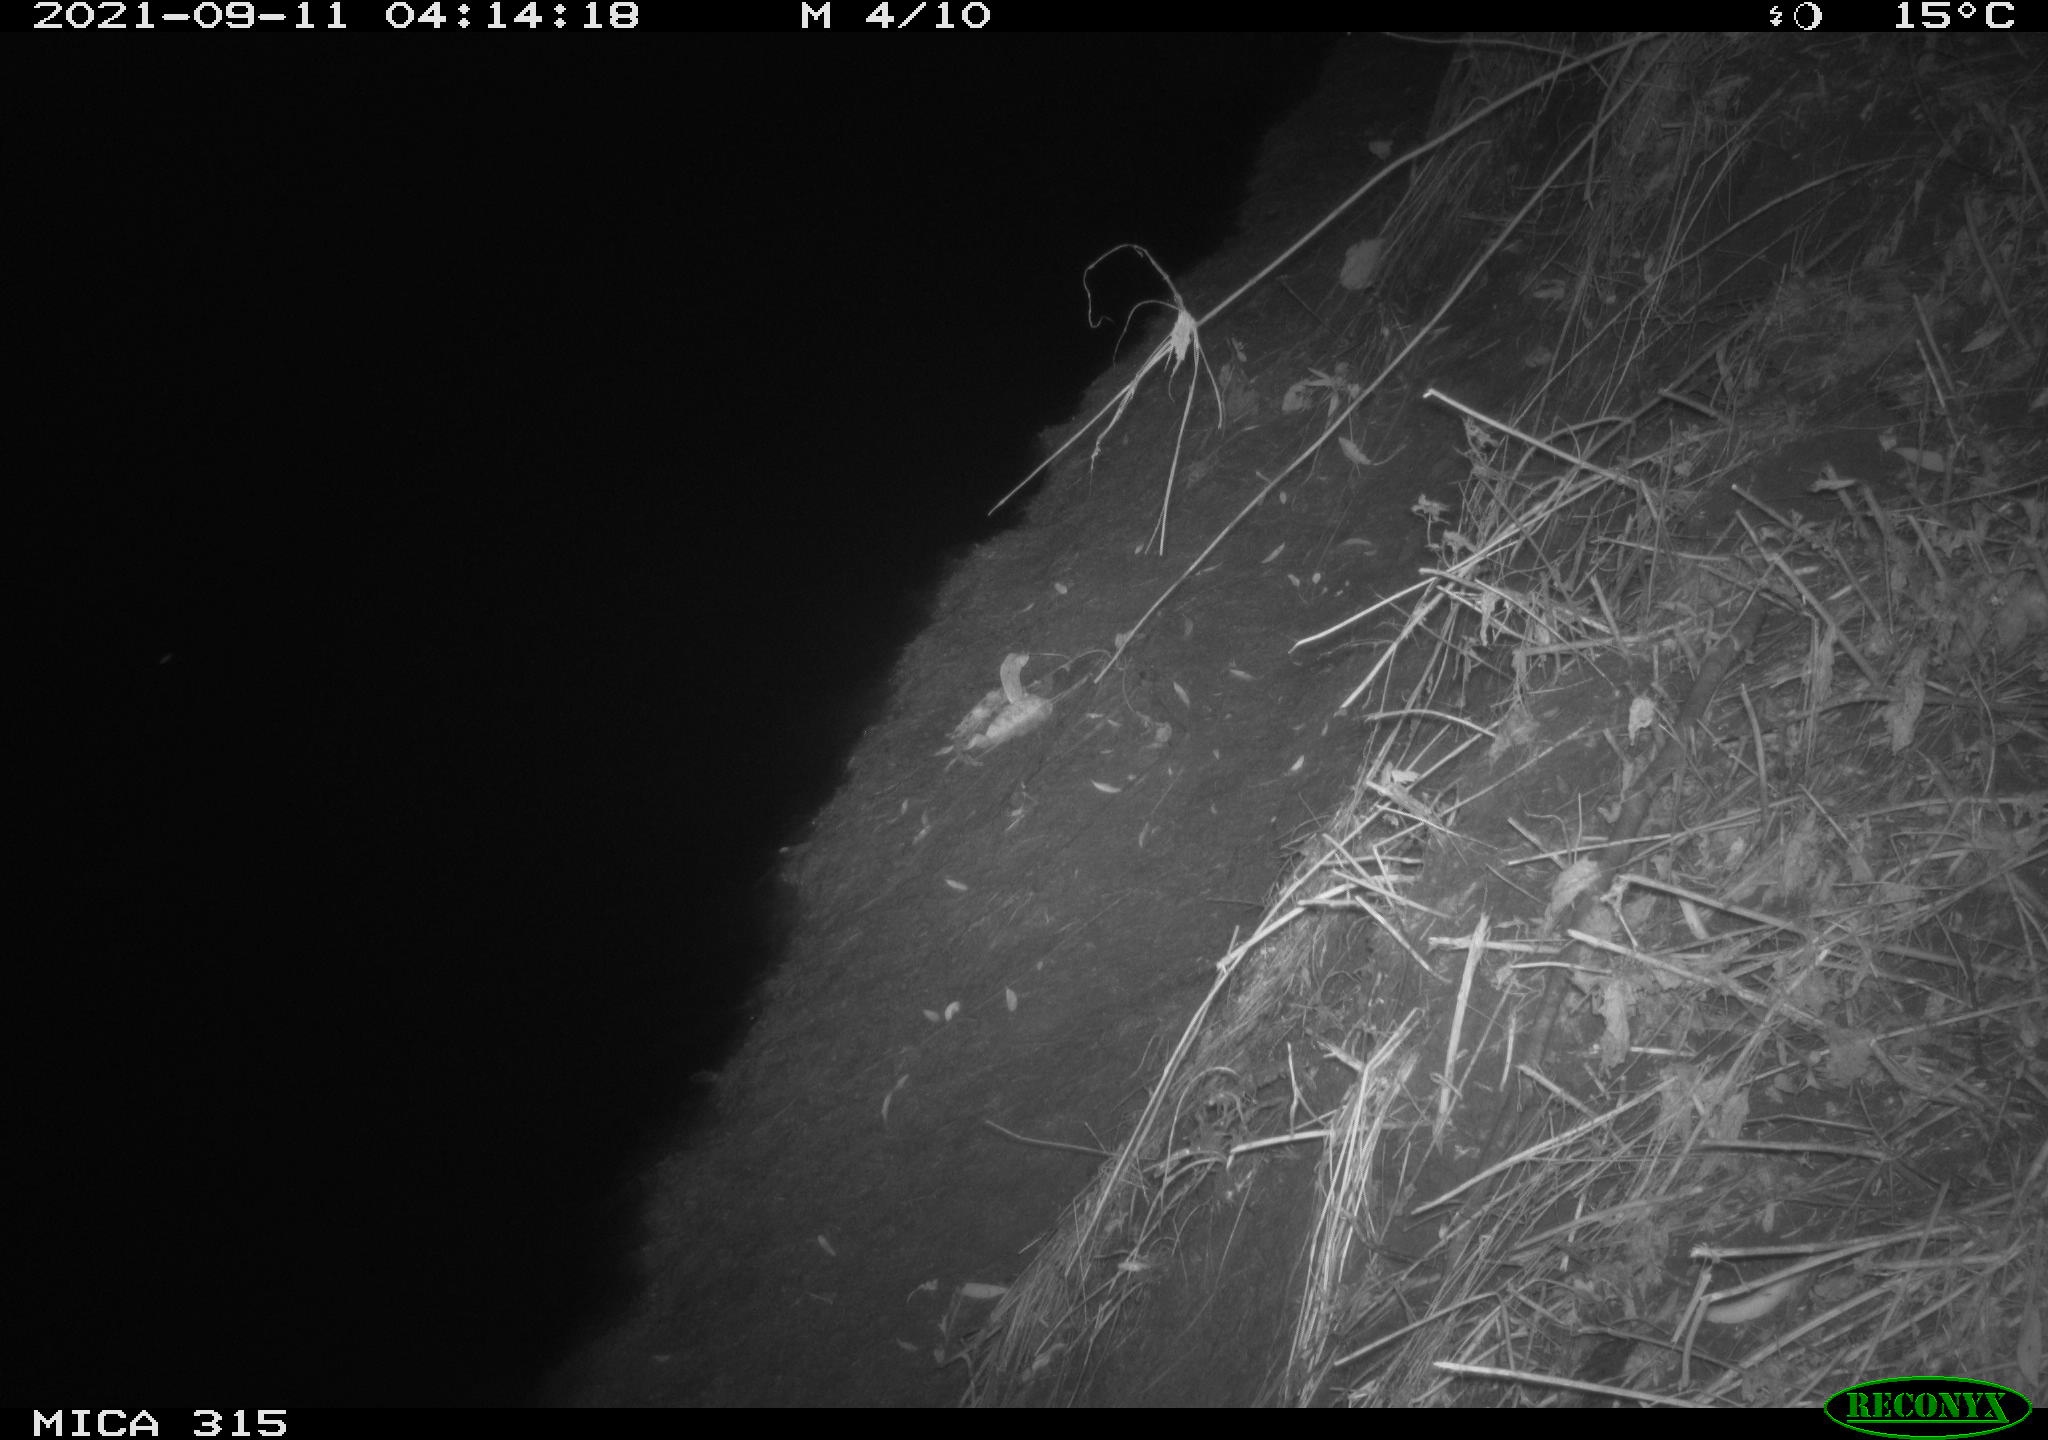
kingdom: Animalia
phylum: Chordata
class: Mammalia
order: Rodentia
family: Muridae
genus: Rattus
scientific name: Rattus norvegicus
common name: Brown rat
